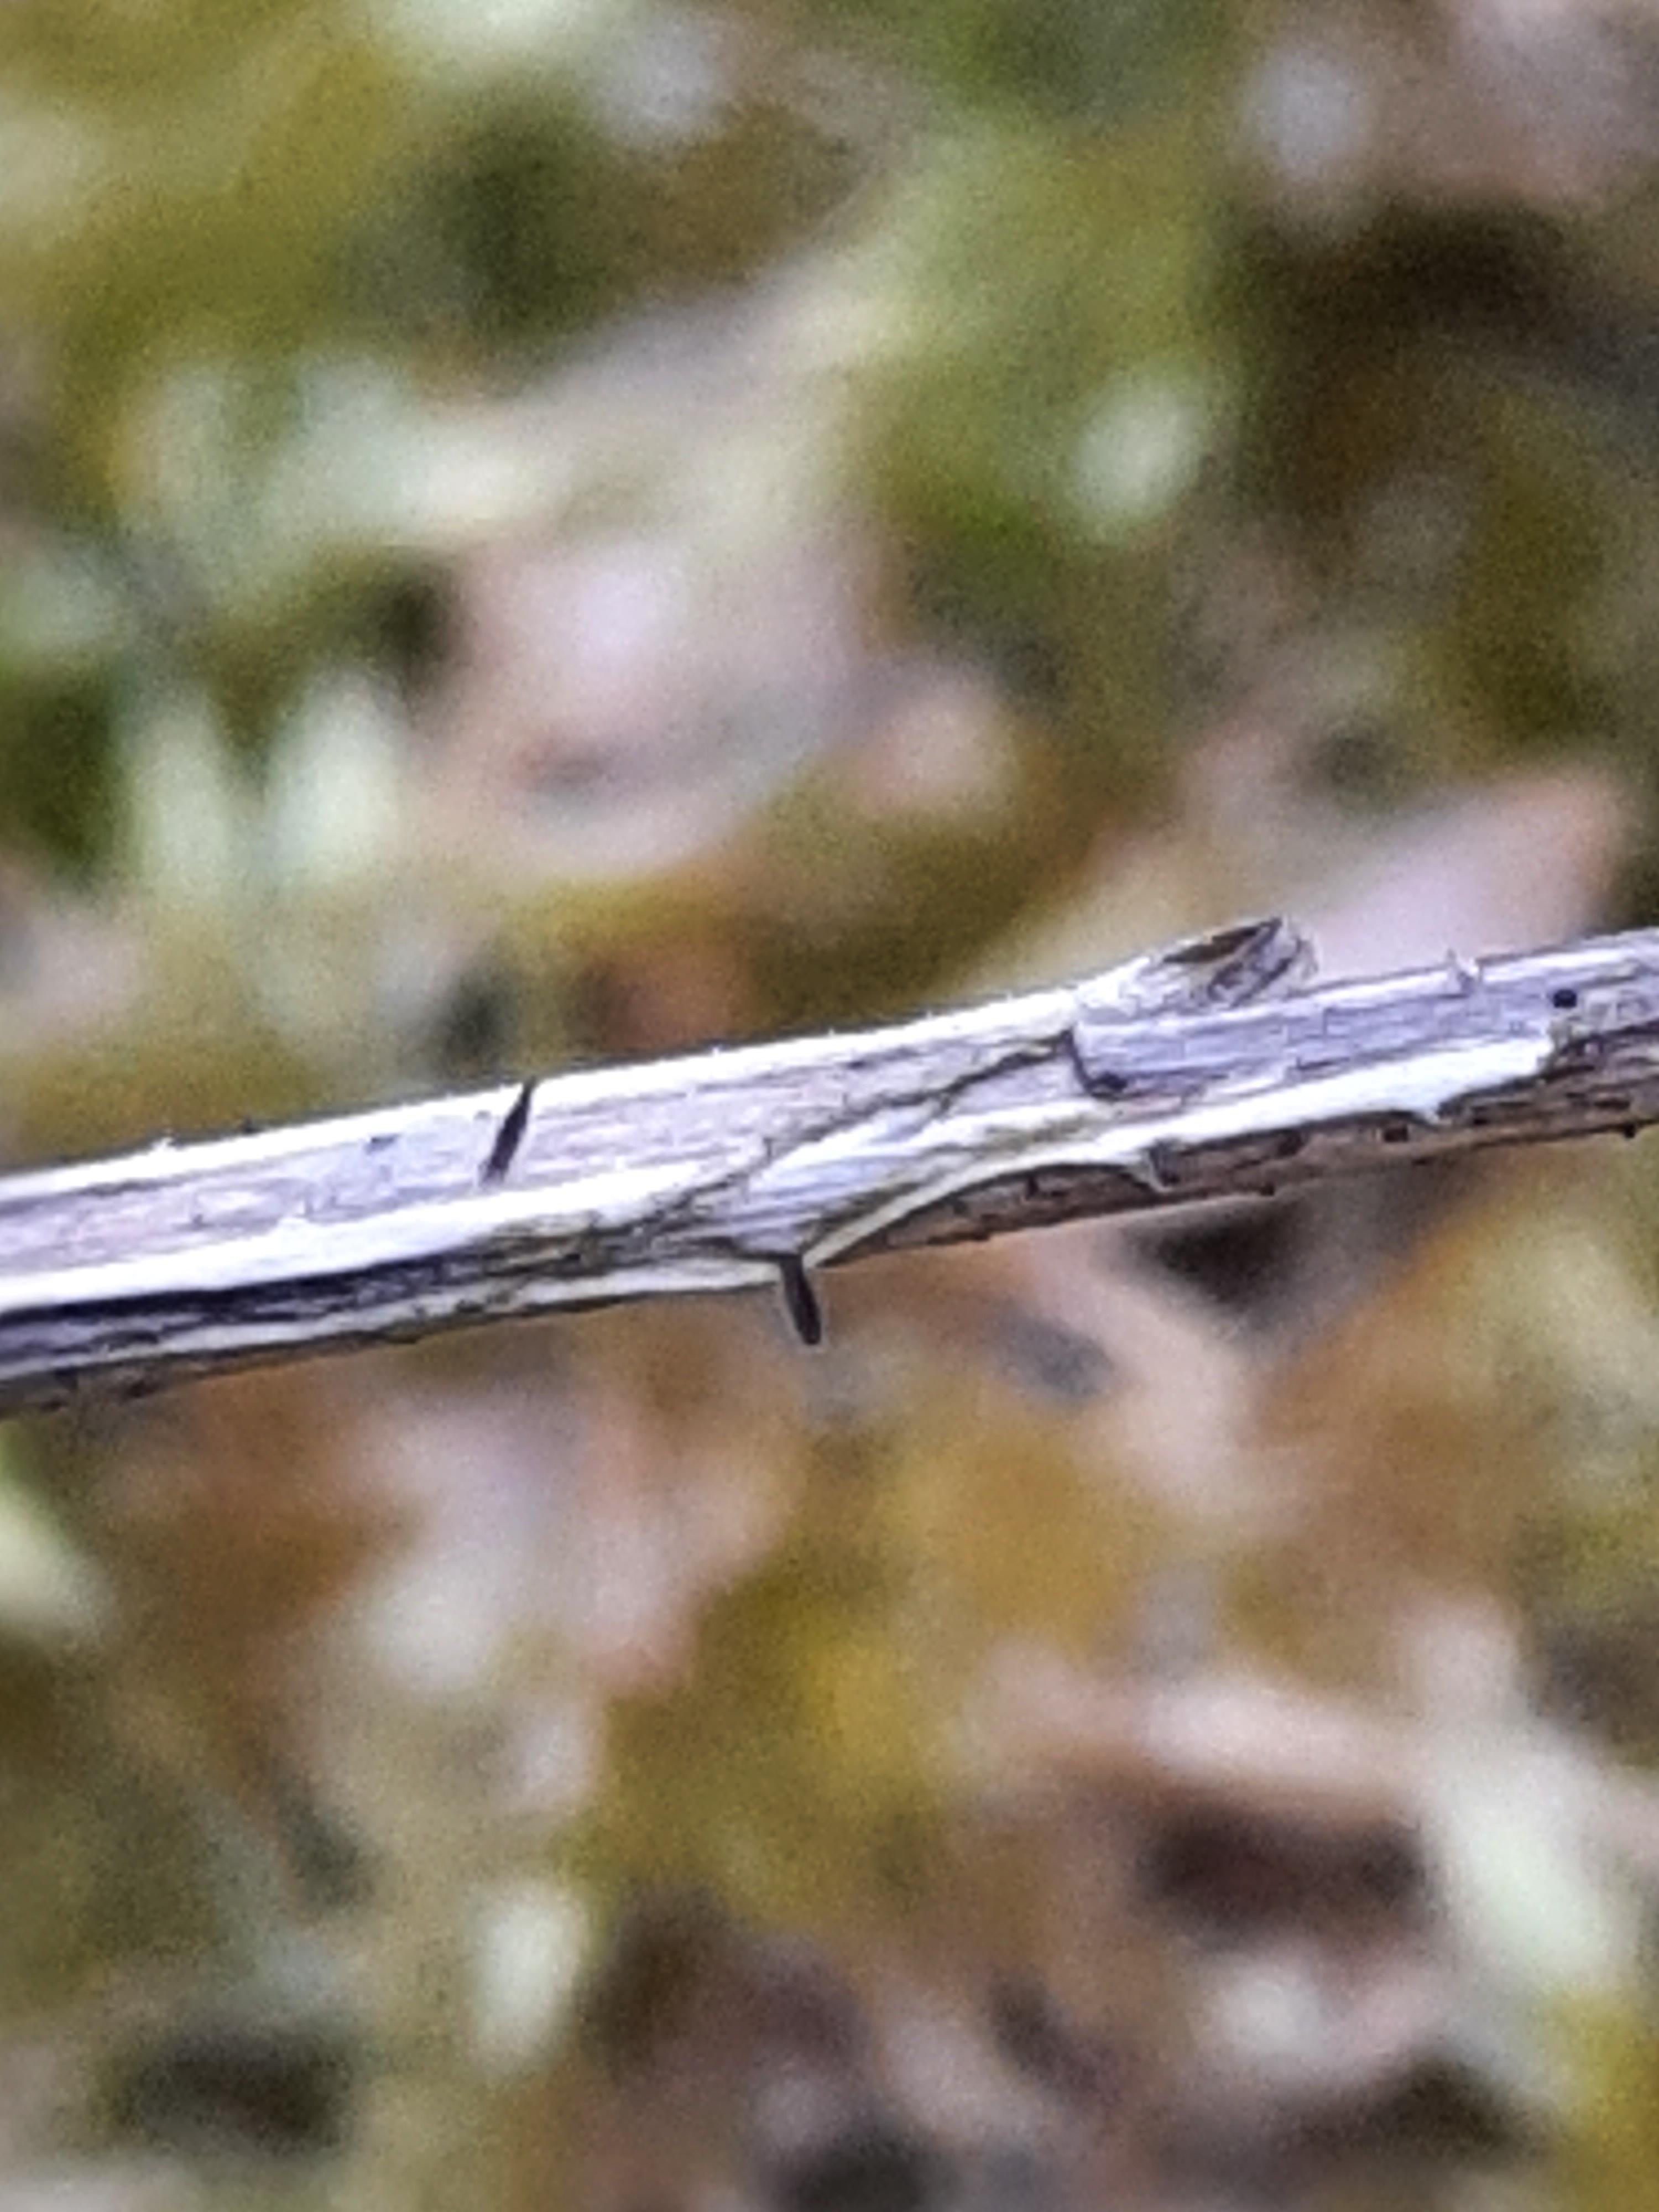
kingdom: Fungi
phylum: Ascomycota
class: Dothideomycetes
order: Acrospermales
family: Acrospermaceae
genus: Acrospermum
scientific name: Acrospermum pallidulum
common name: snerre-stængeltunge
